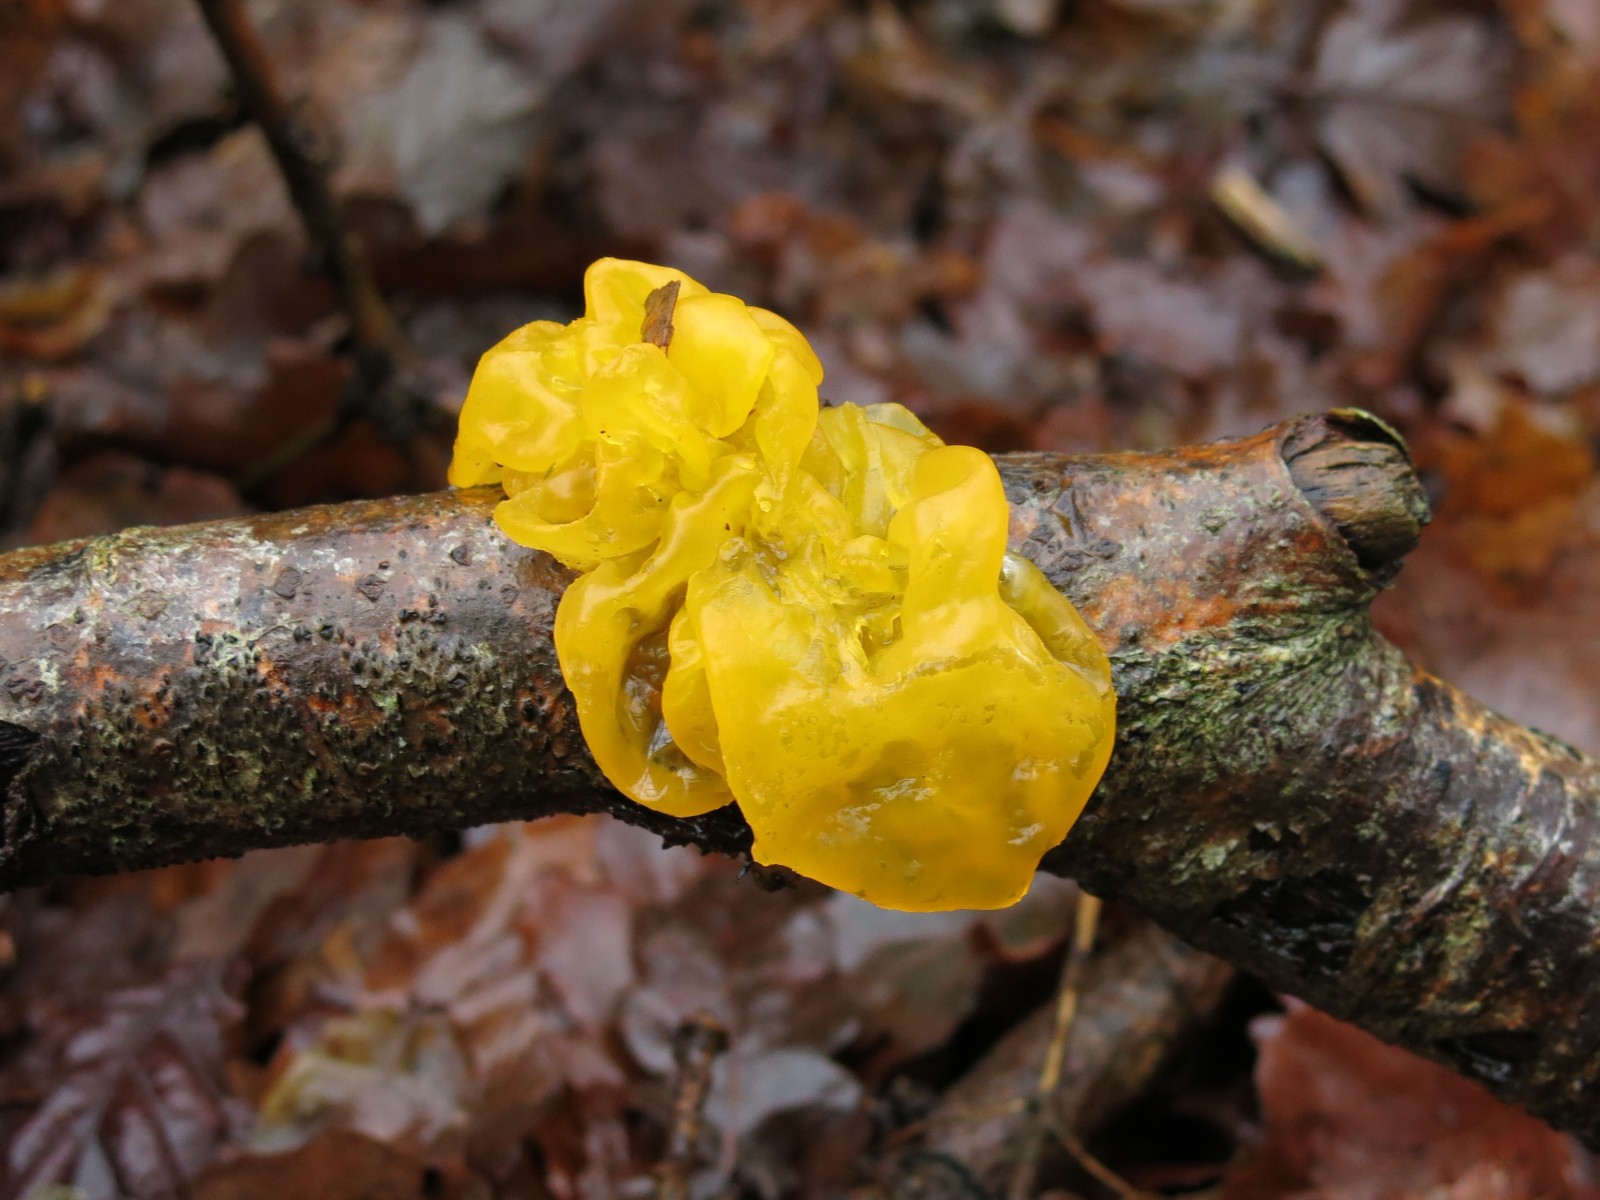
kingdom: Fungi
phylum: Basidiomycota
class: Tremellomycetes
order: Tremellales
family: Tremellaceae
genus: Tremella
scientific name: Tremella mesenterica
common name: gul bævresvamp
